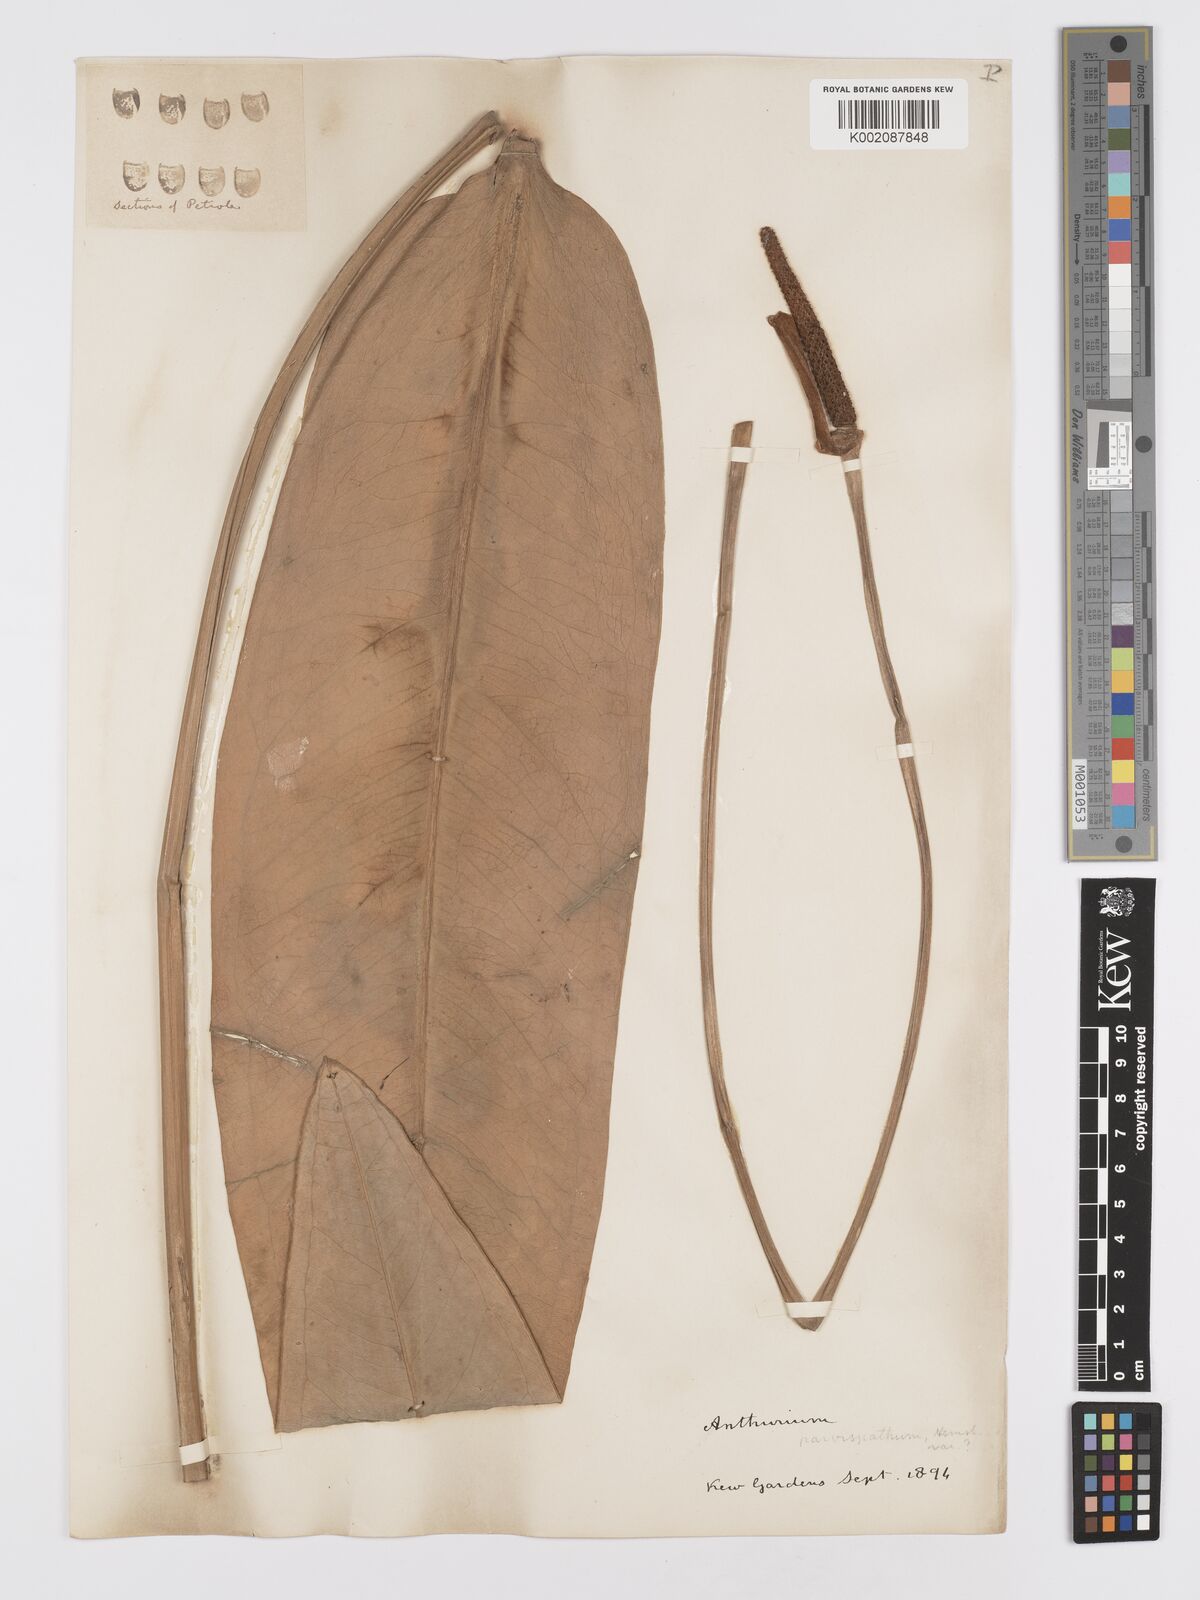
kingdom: Plantae
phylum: Tracheophyta
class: Liliopsida
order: Alismatales
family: Araceae
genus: Anthurium
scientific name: Anthurium parvispathum
